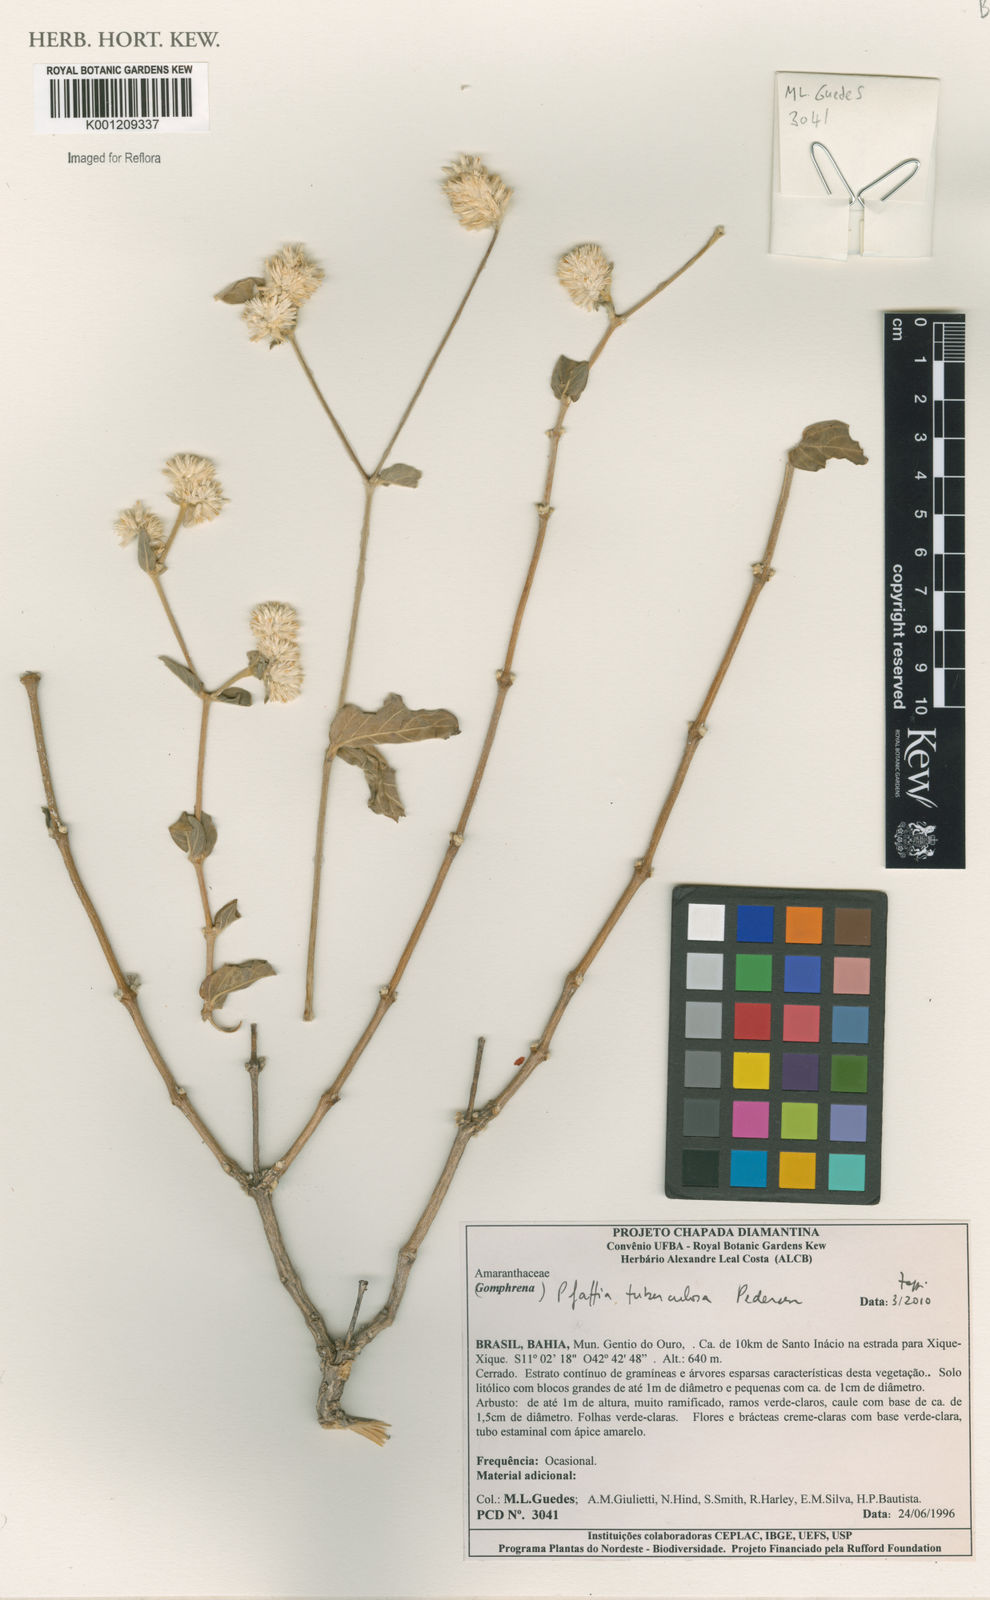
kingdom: Plantae
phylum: Tracheophyta
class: Magnoliopsida
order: Caryophyllales
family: Amaranthaceae
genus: Pfaffia
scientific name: Pfaffia tuberculosa
